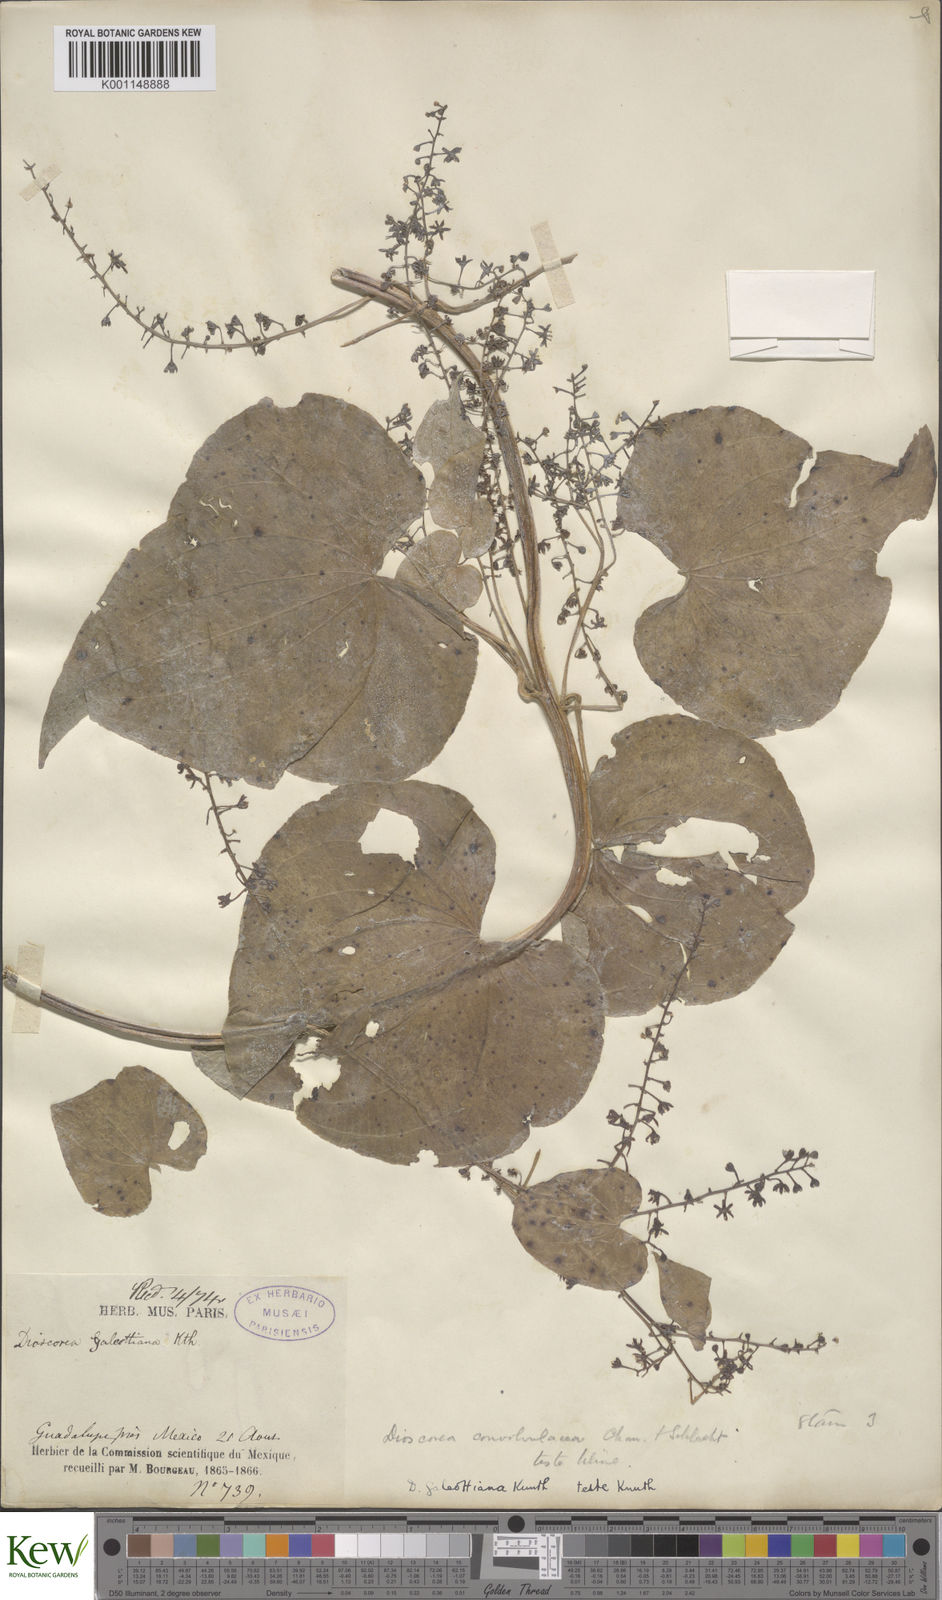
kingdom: Plantae
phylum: Tracheophyta
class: Liliopsida
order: Dioscoreales
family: Dioscoreaceae
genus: Dioscorea
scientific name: Dioscorea galeottiana
